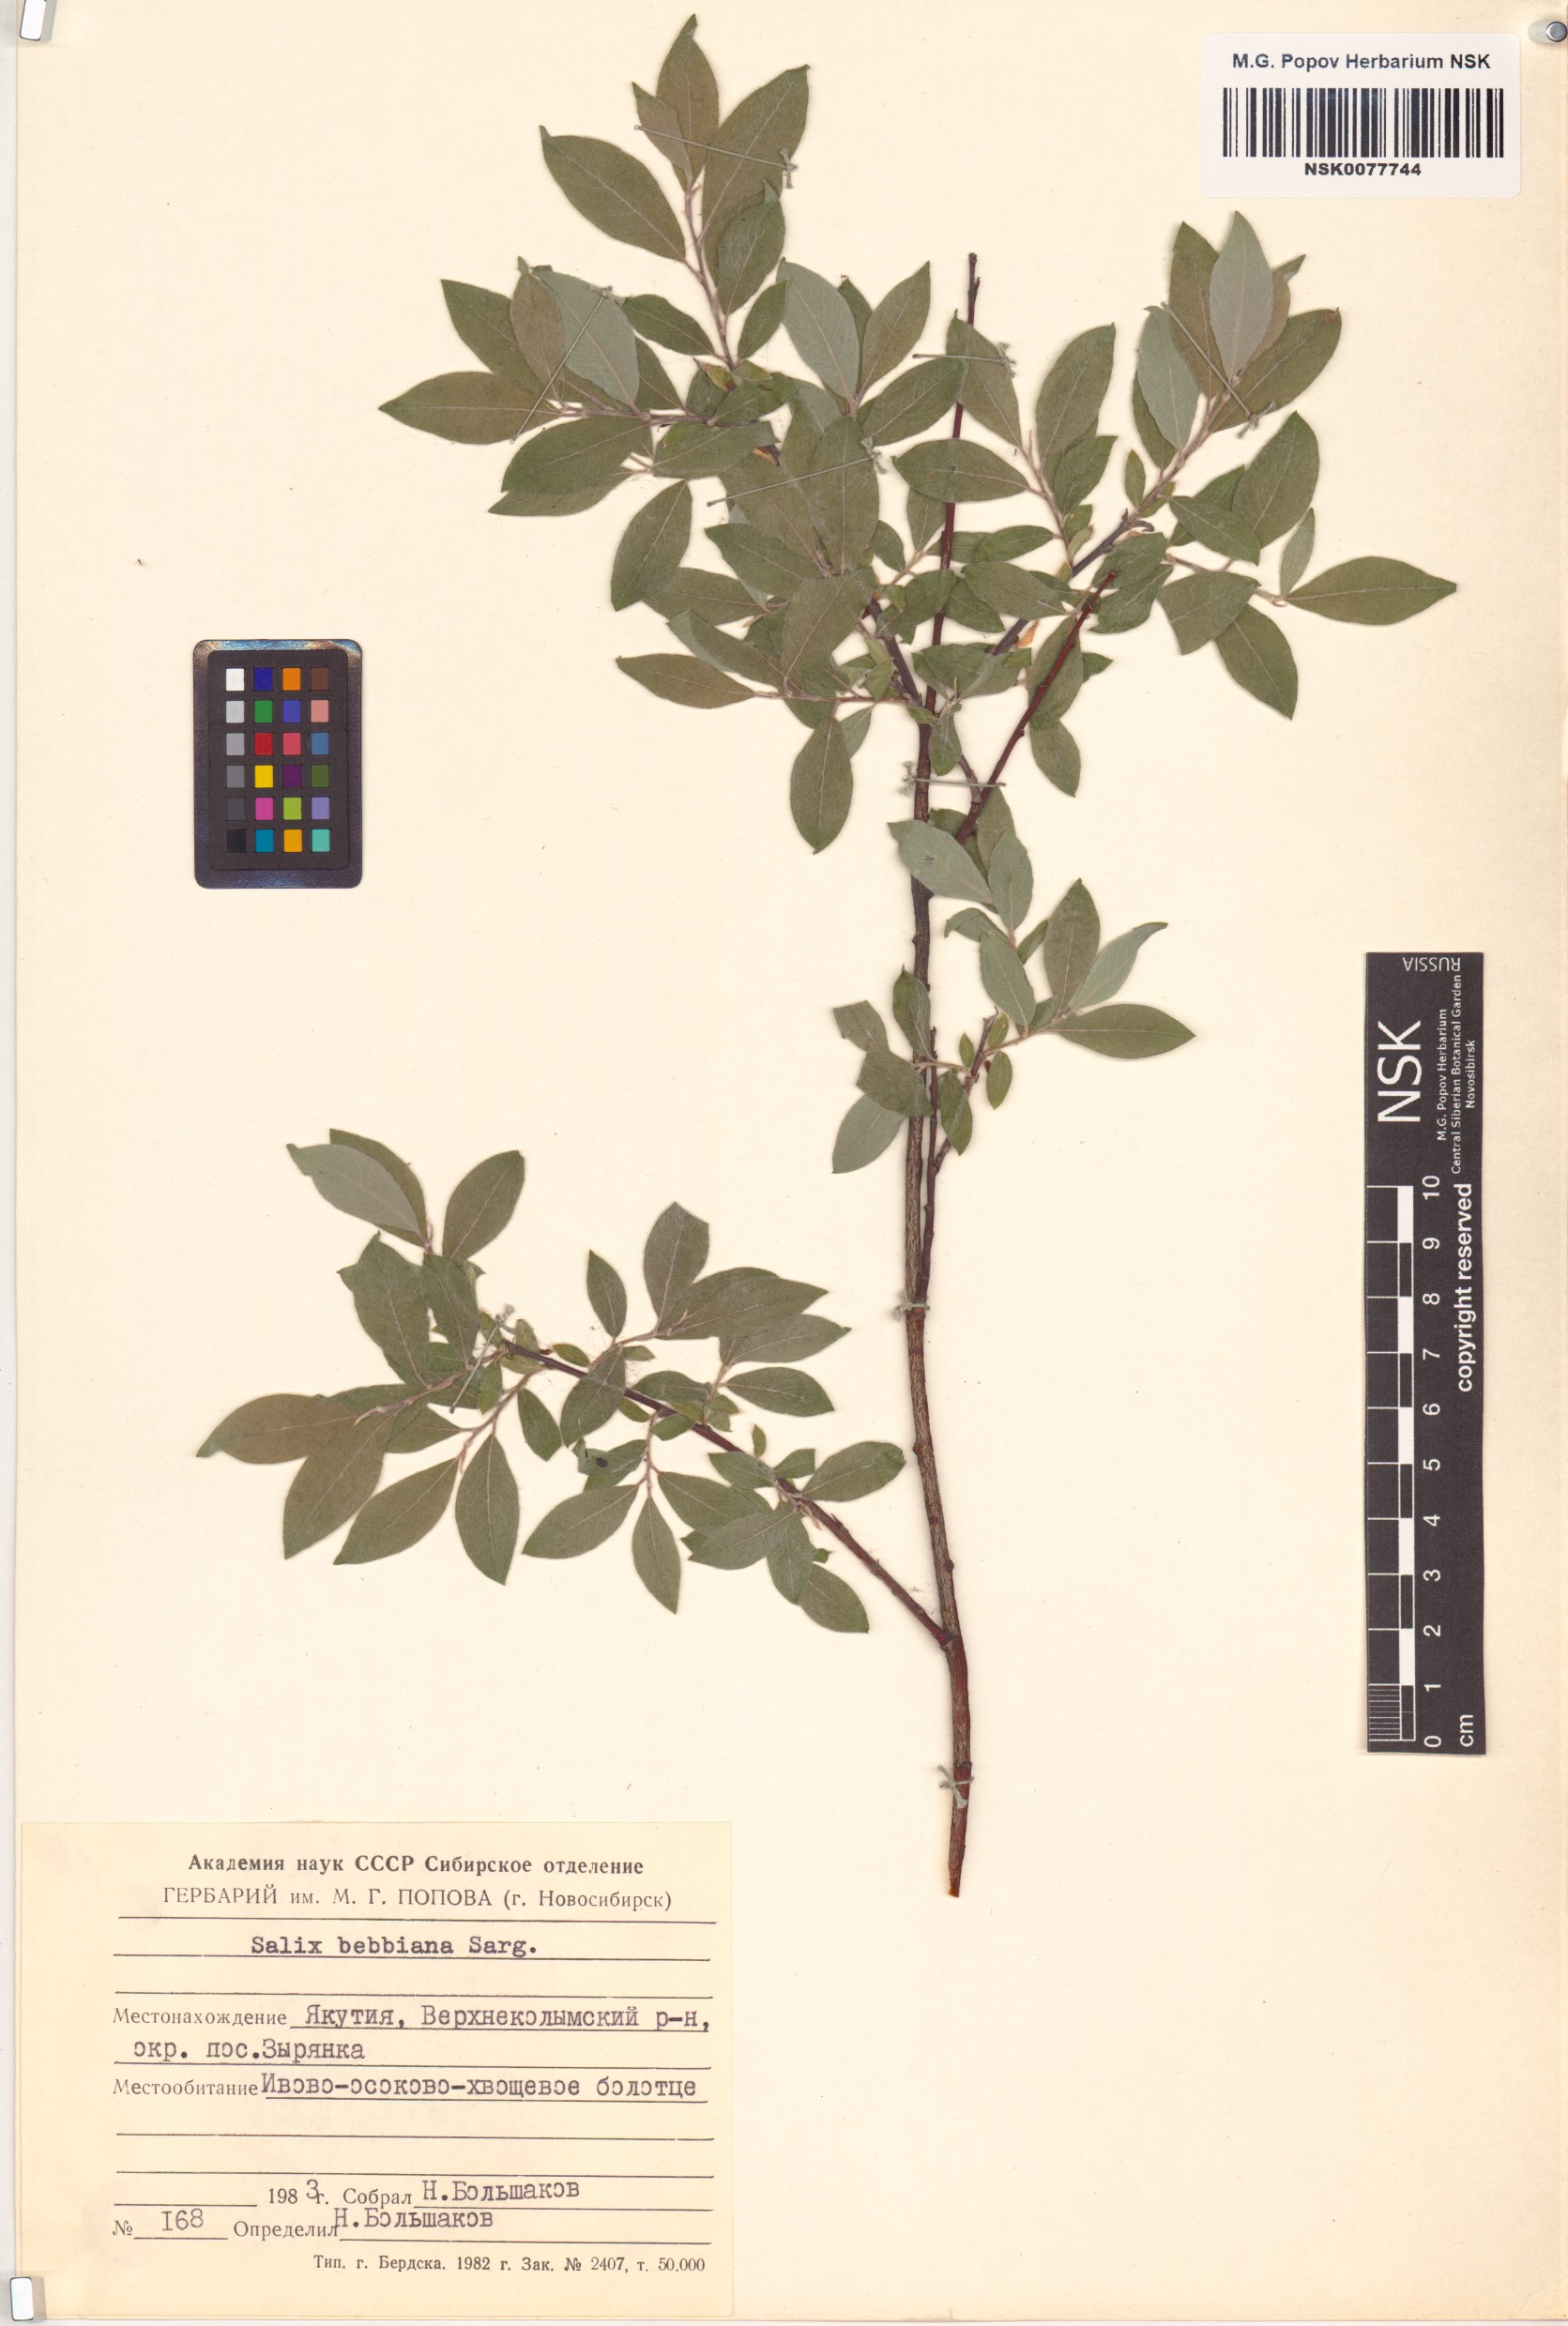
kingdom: Plantae
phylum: Tracheophyta
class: Magnoliopsida
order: Malpighiales
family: Salicaceae
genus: Salix
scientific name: Salix bebbiana
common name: Bebb's willow
